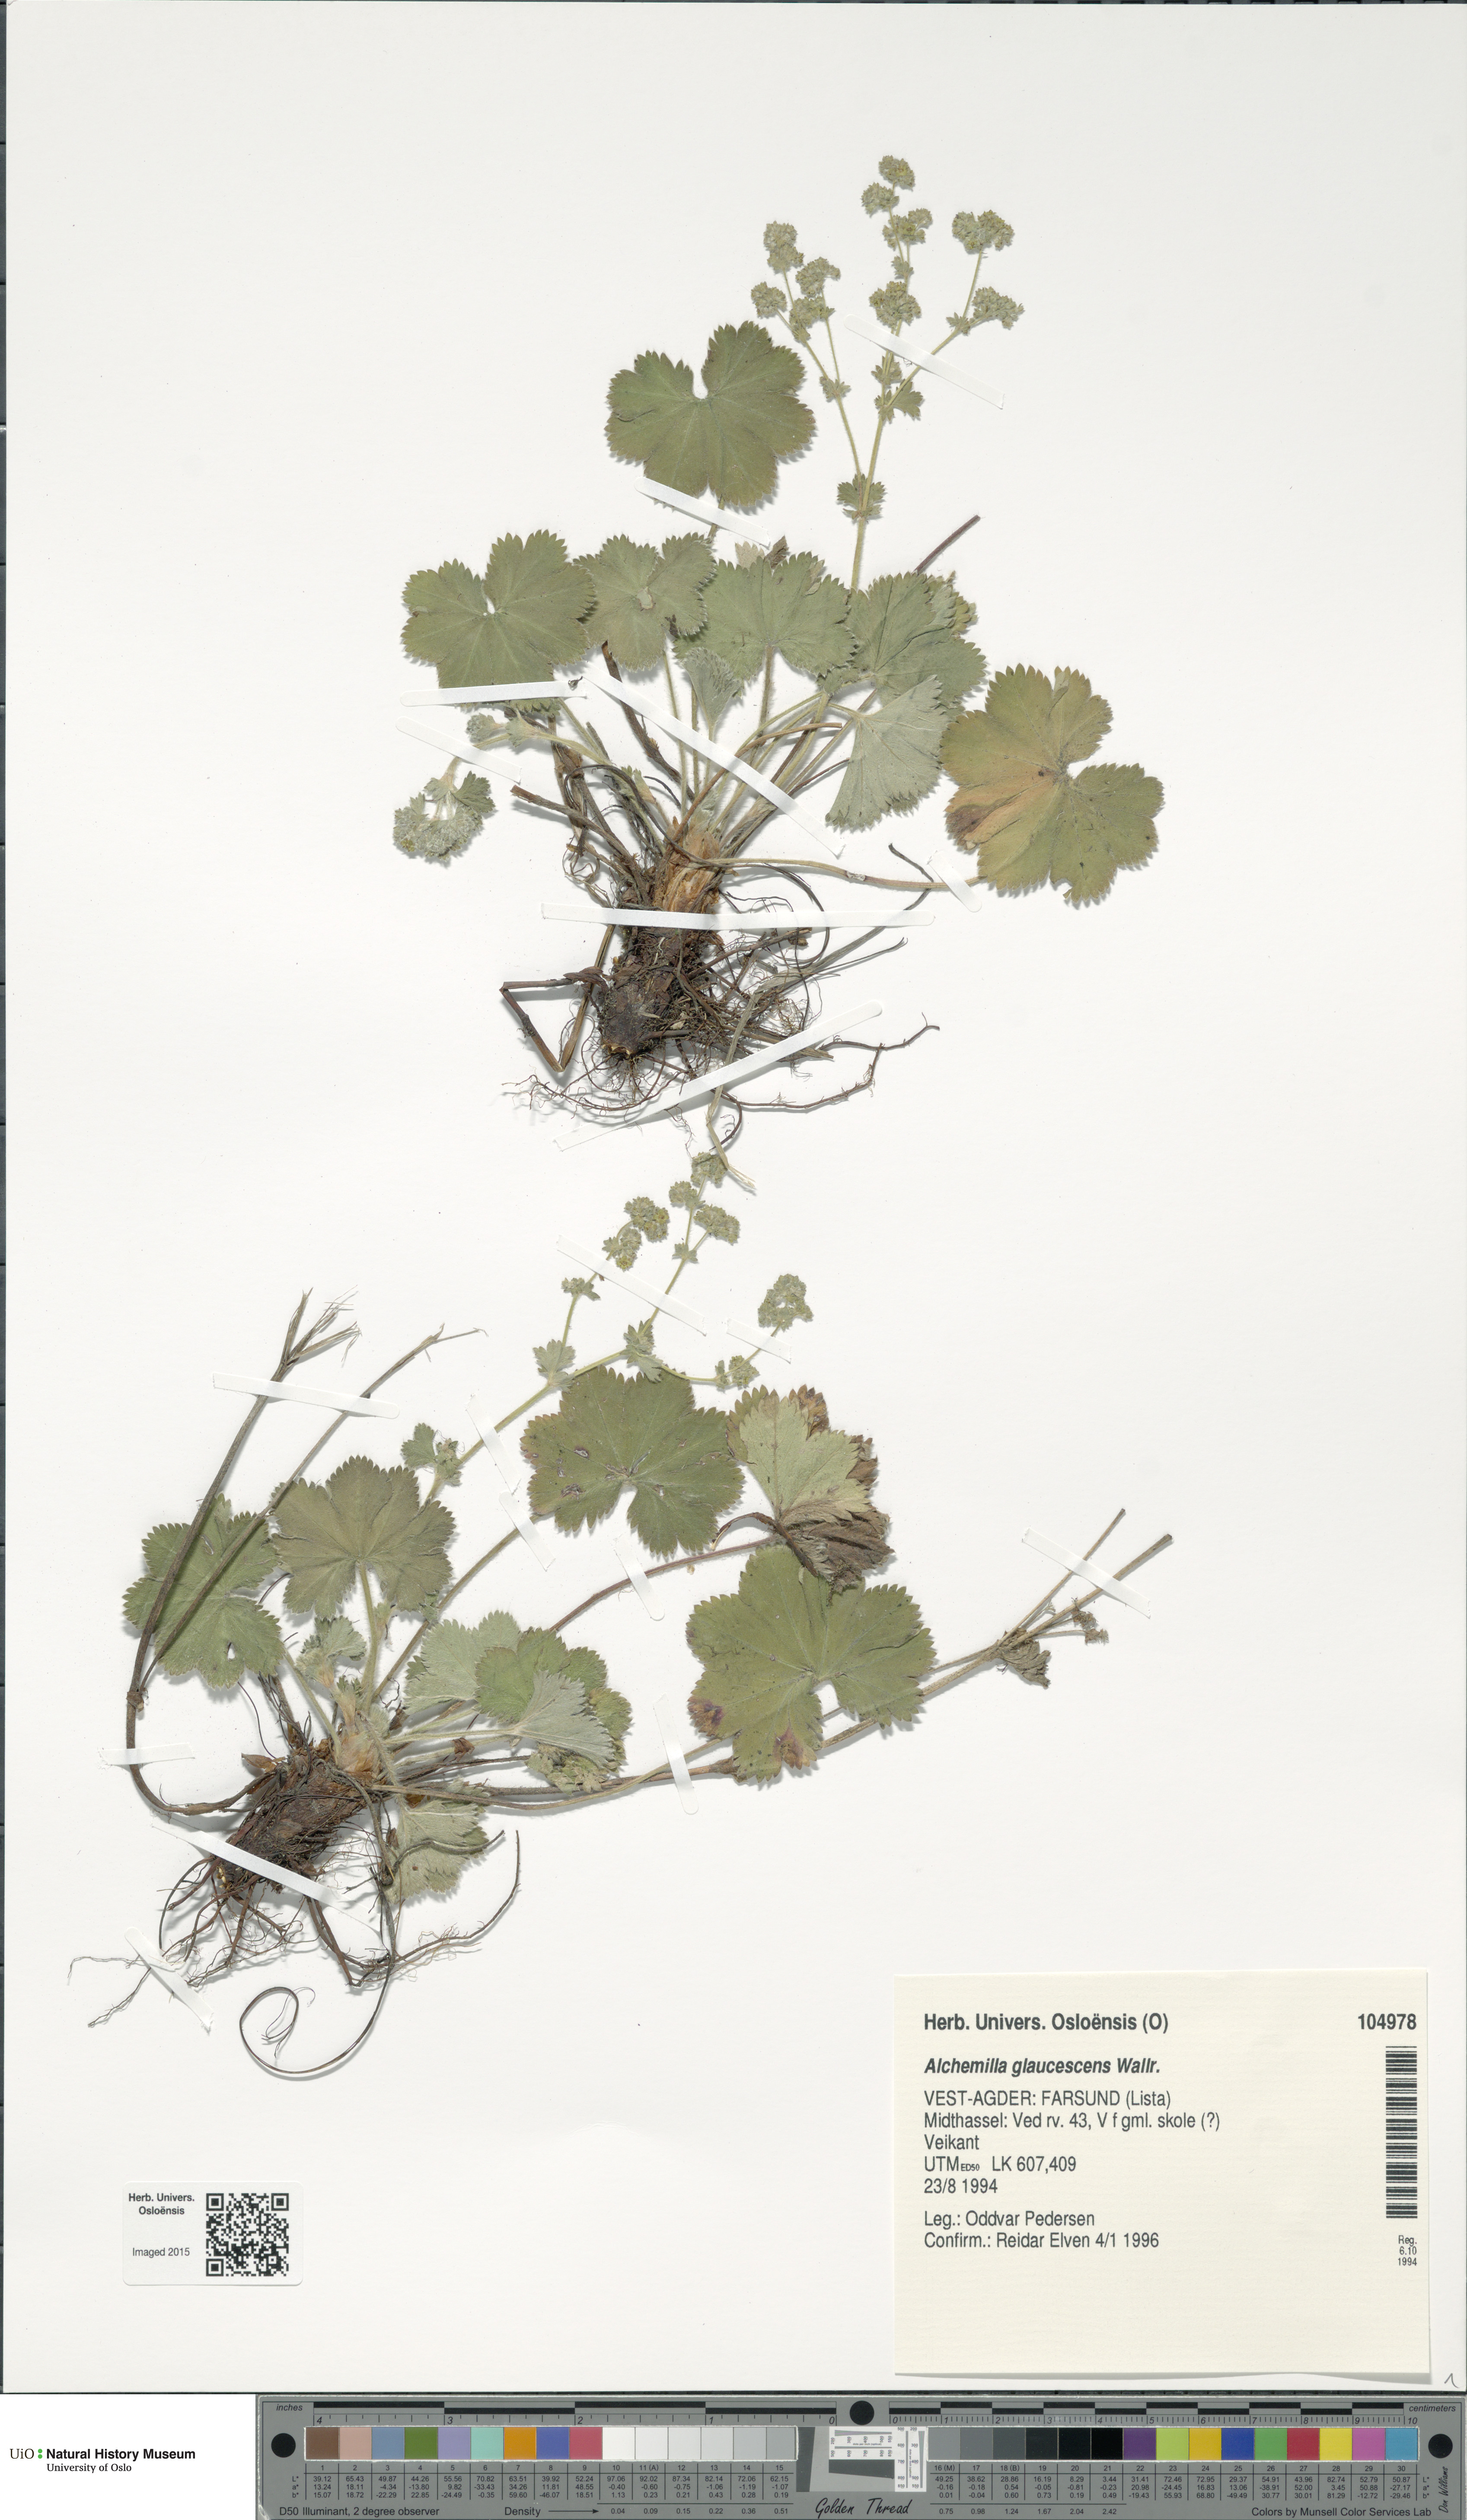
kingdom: Plantae
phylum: Tracheophyta
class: Magnoliopsida
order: Rosales
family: Rosaceae
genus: Alchemilla
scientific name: Alchemilla glaucescens
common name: Silky lady's mantle
